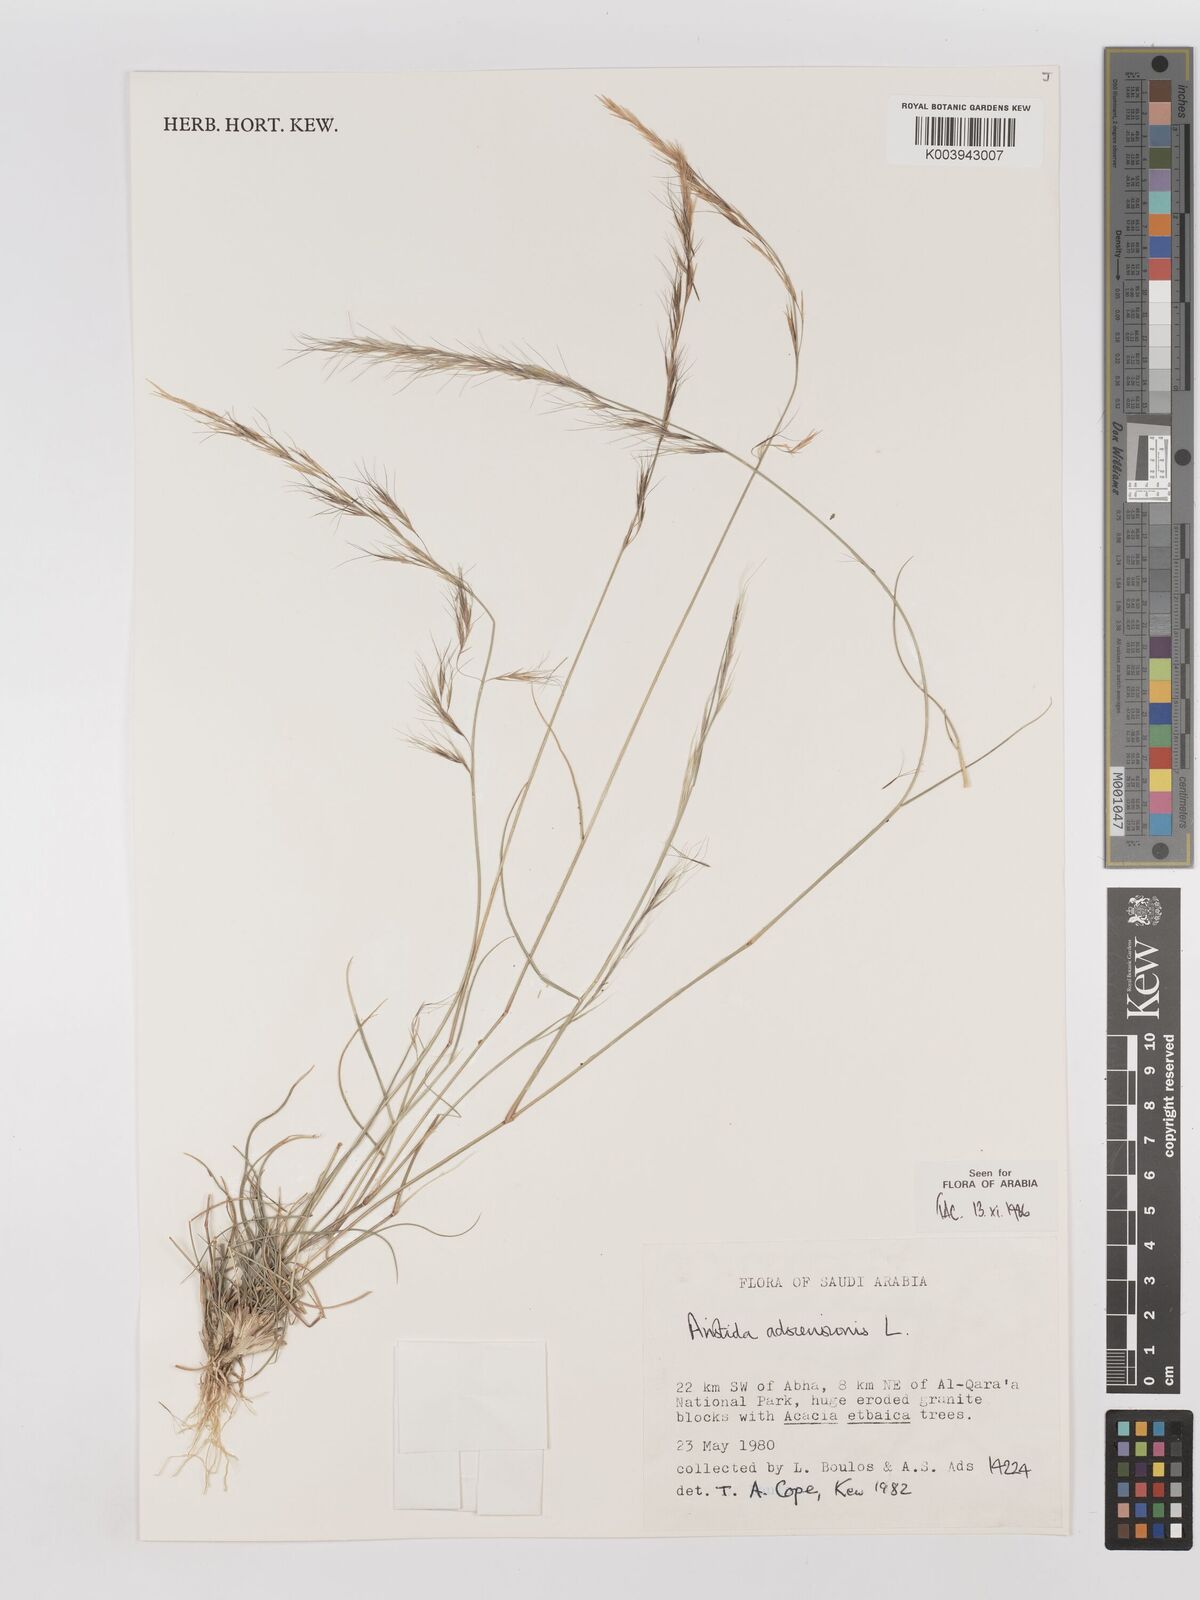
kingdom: Plantae
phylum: Tracheophyta
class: Liliopsida
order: Poales
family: Poaceae
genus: Aristida
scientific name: Aristida adscensionis
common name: Sixweeks threeawn
